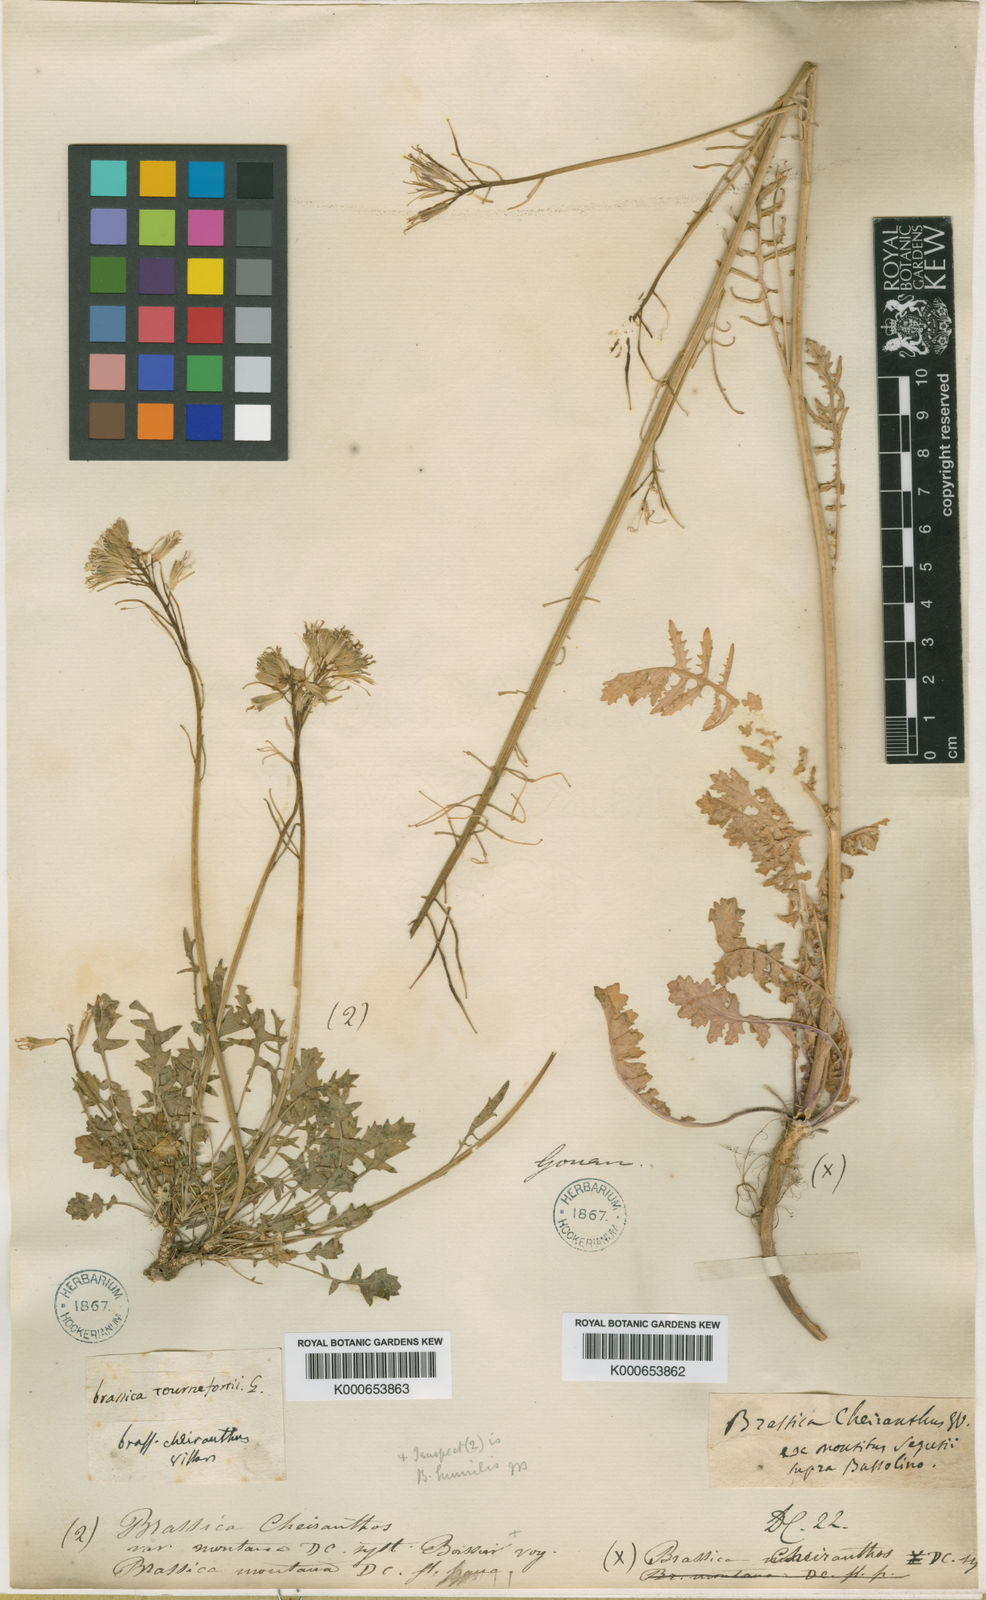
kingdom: Plantae
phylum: Tracheophyta
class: Magnoliopsida
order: Brassicales
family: Brassicaceae
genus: Coincya
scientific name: Coincya monensis
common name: Star-mustard
